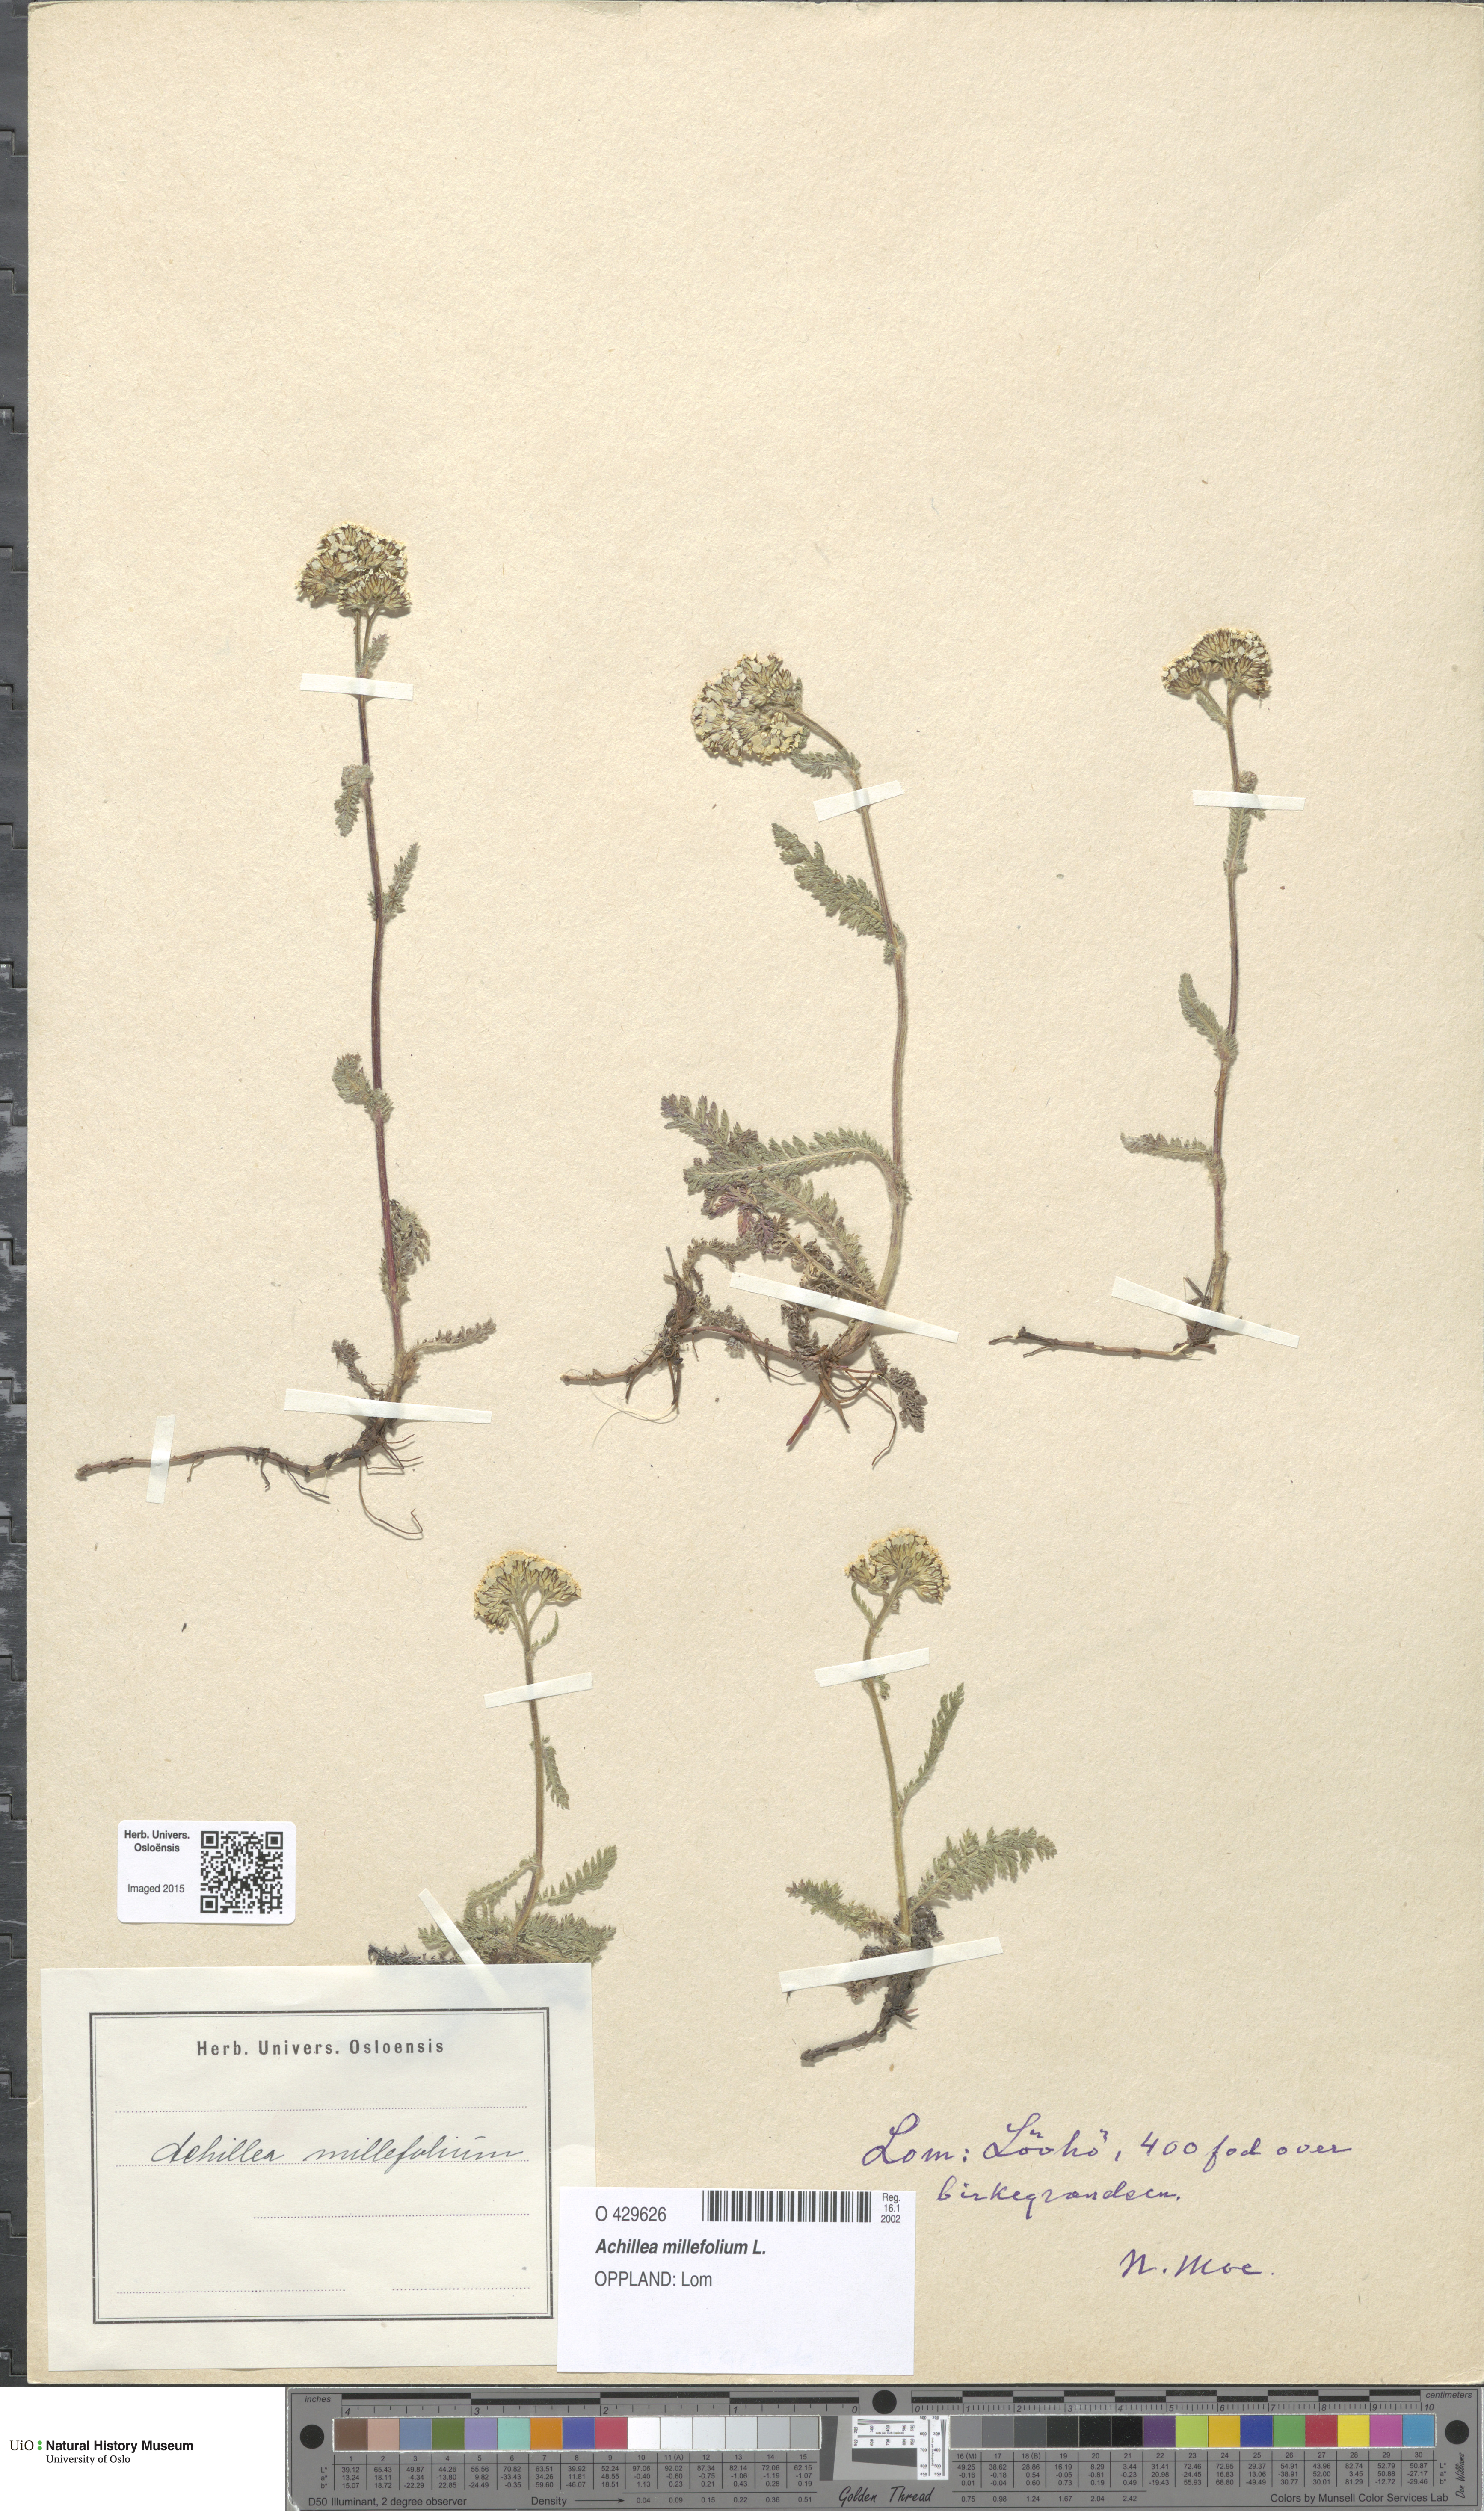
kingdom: Plantae
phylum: Tracheophyta
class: Magnoliopsida
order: Asterales
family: Asteraceae
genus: Achillea
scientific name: Achillea millefolium
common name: Yarrow
